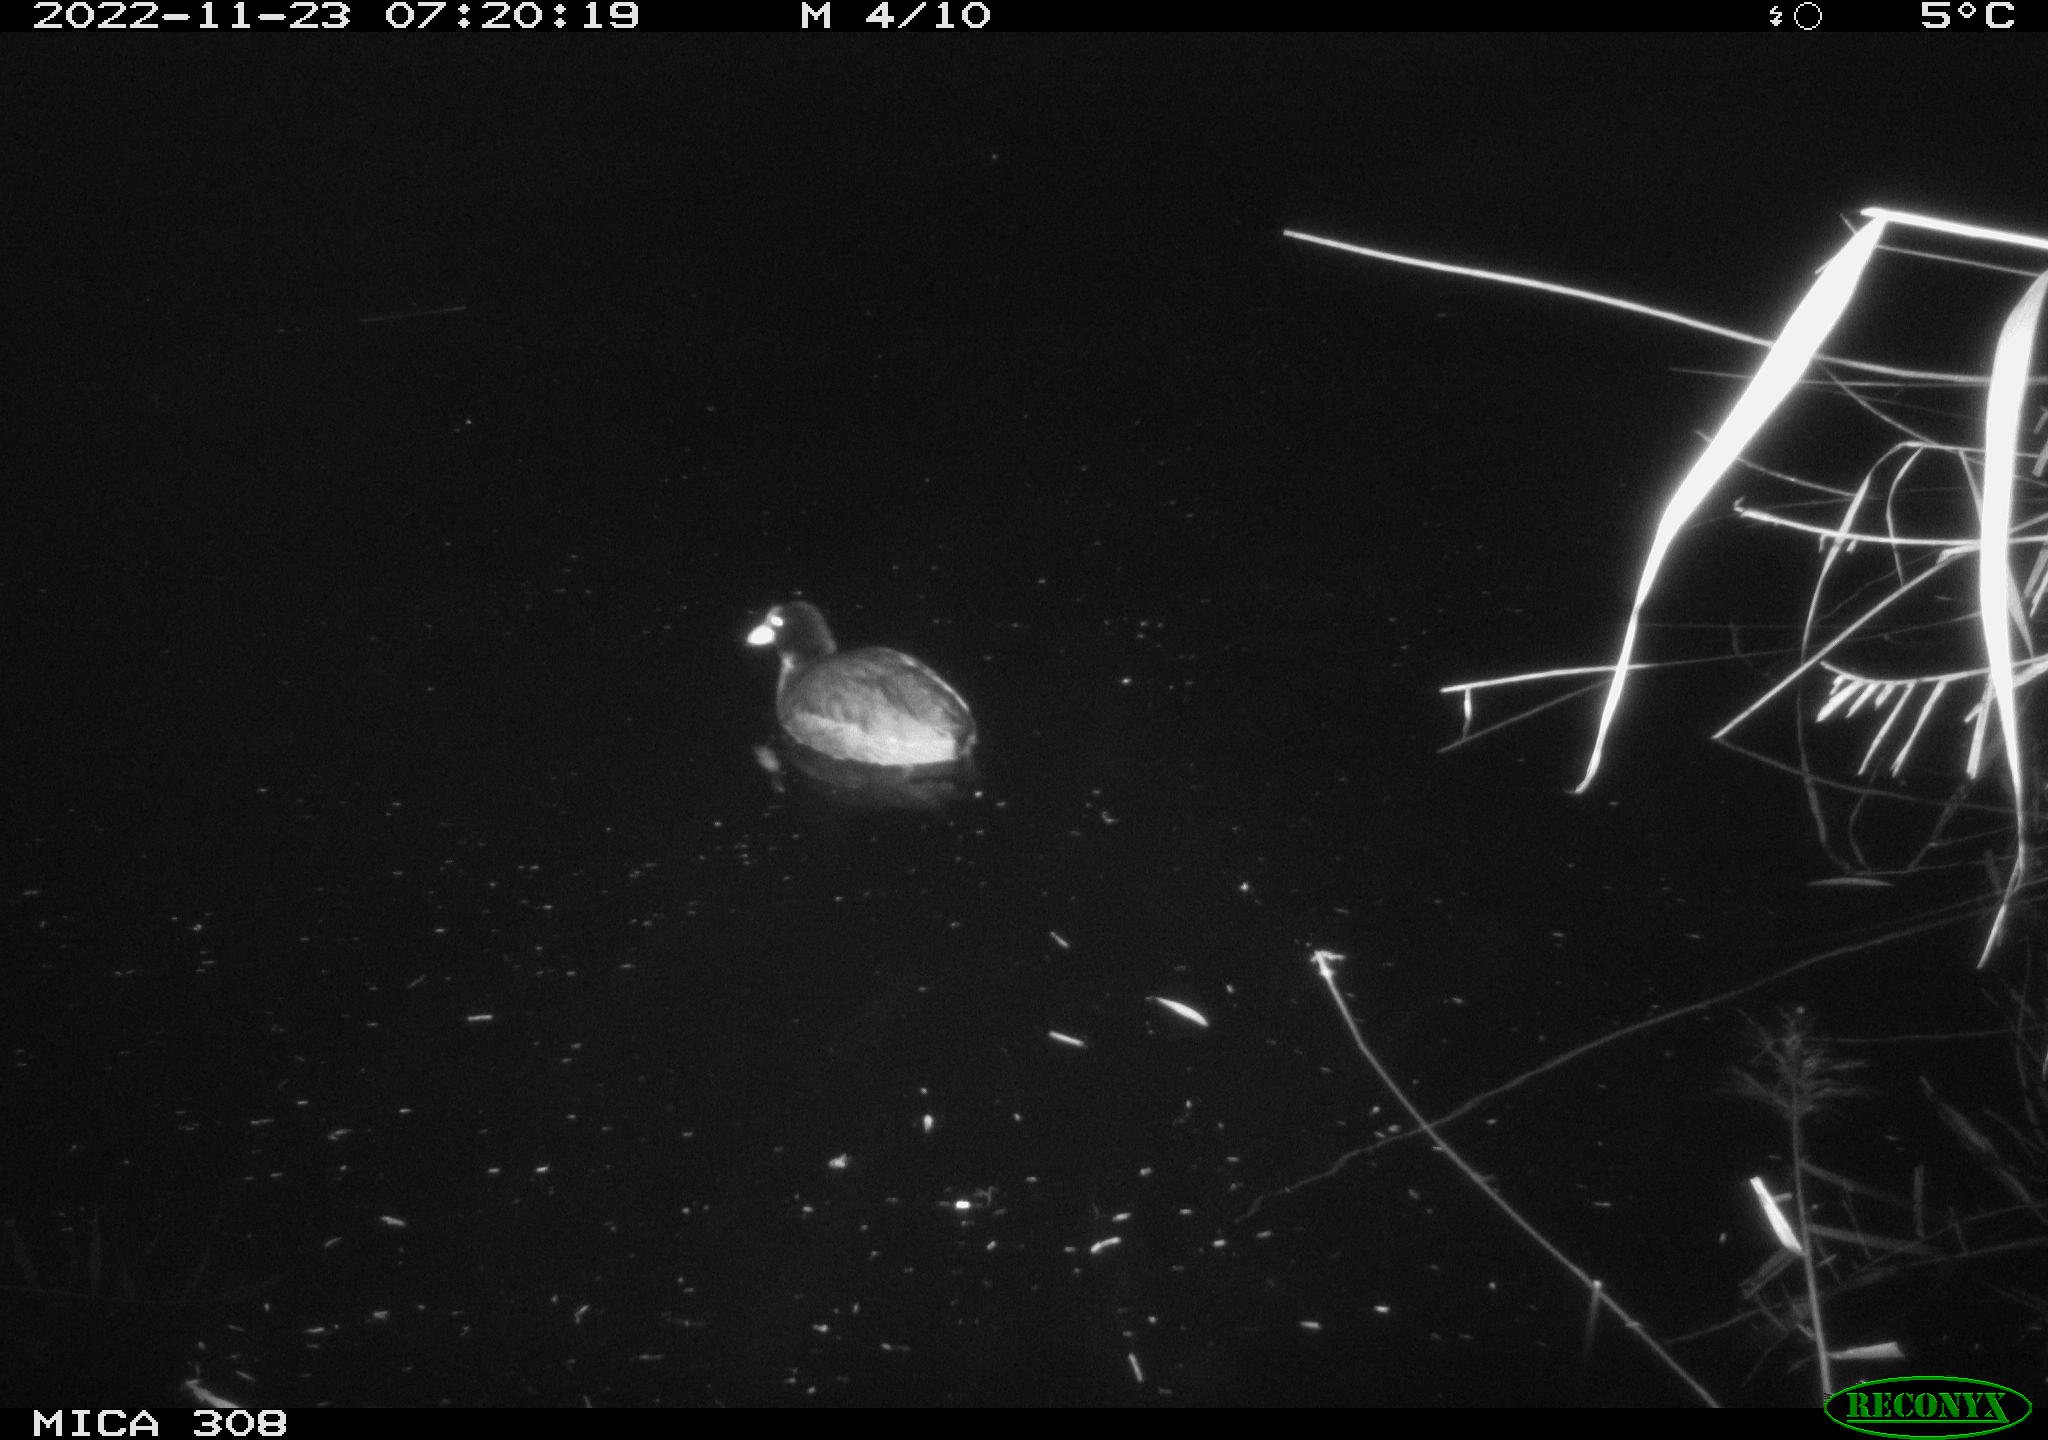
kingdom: Animalia
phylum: Chordata
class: Aves
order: Anseriformes
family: Anatidae
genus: Anas
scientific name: Anas
